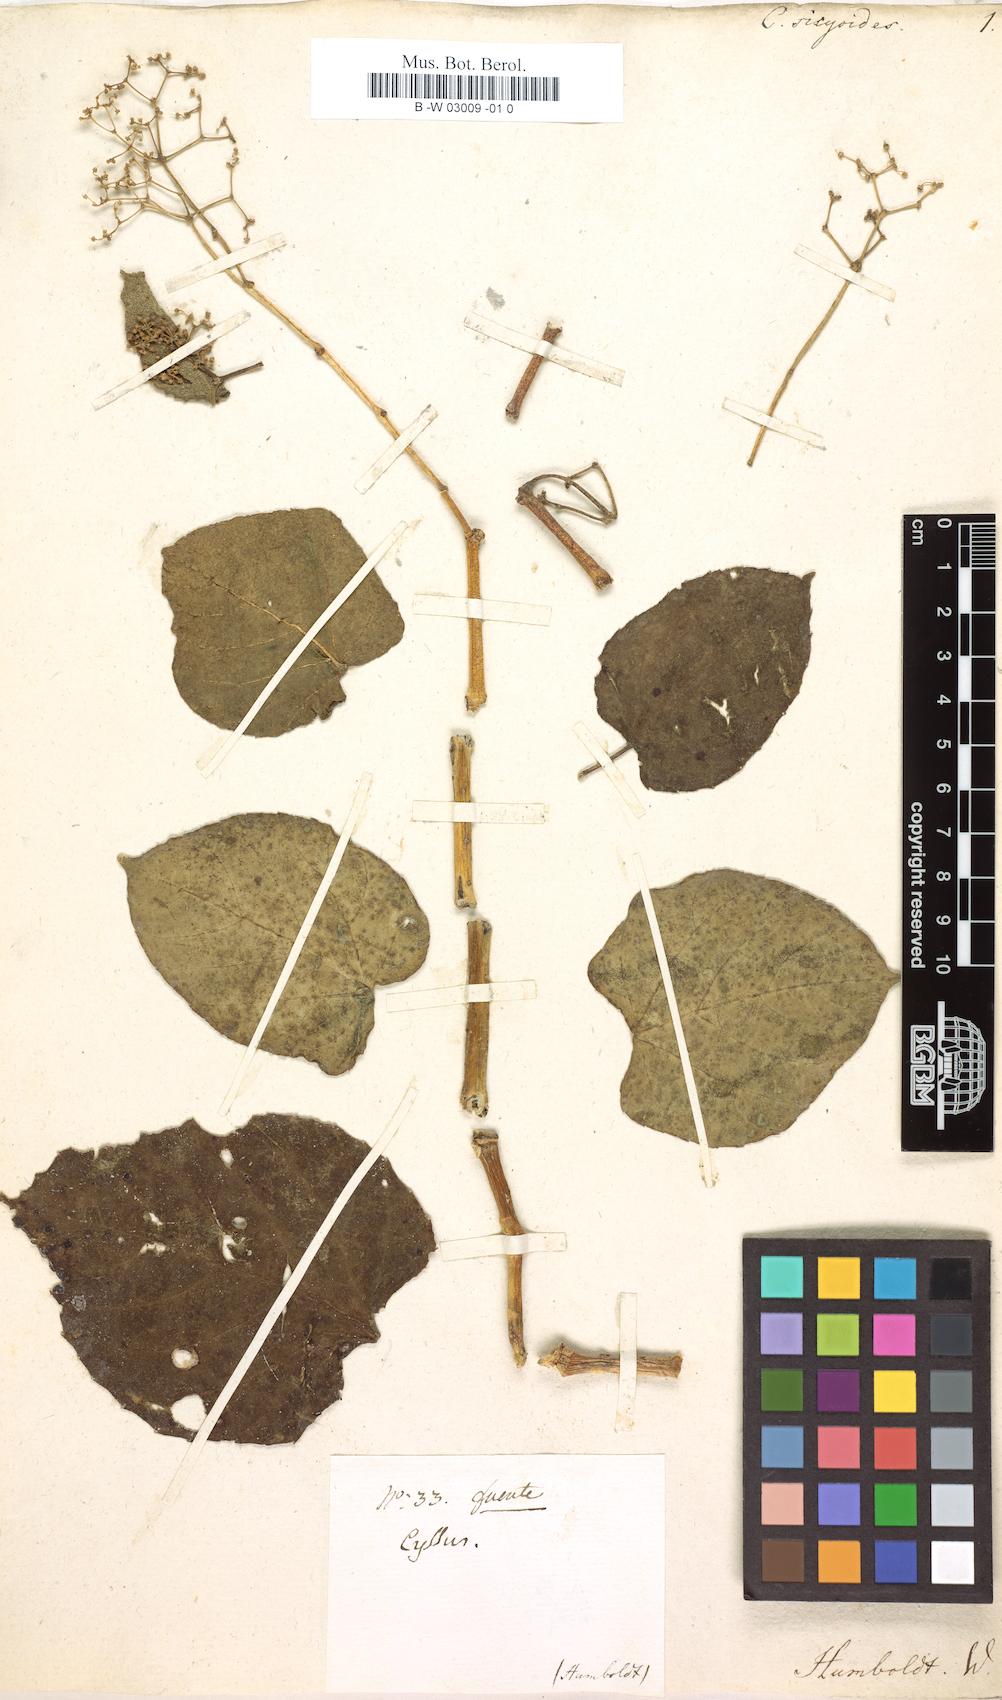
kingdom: Plantae
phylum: Tracheophyta
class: Magnoliopsida
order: Vitales
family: Vitaceae
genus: Cissus
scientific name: Cissus verticillata
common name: Princess vine
